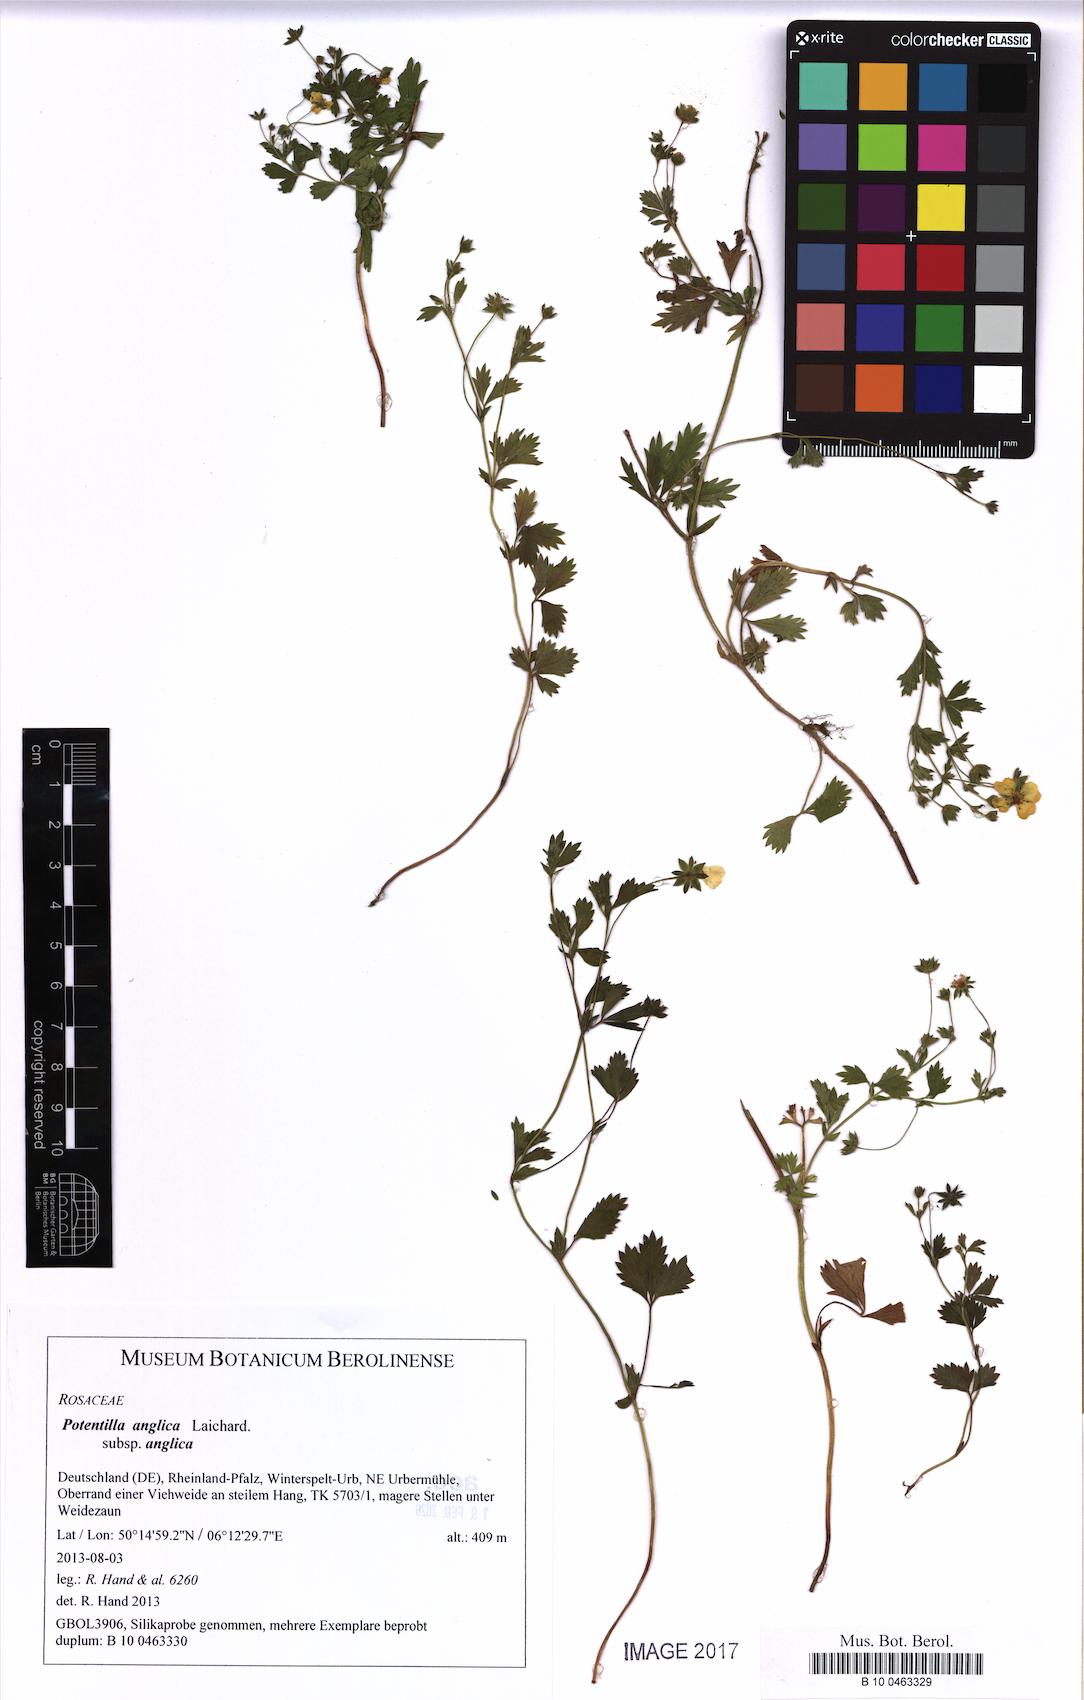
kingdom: Plantae
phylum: Tracheophyta
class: Magnoliopsida
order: Rosales
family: Rosaceae
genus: Potentilla
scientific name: Potentilla anglica
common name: Trailing tormentil
